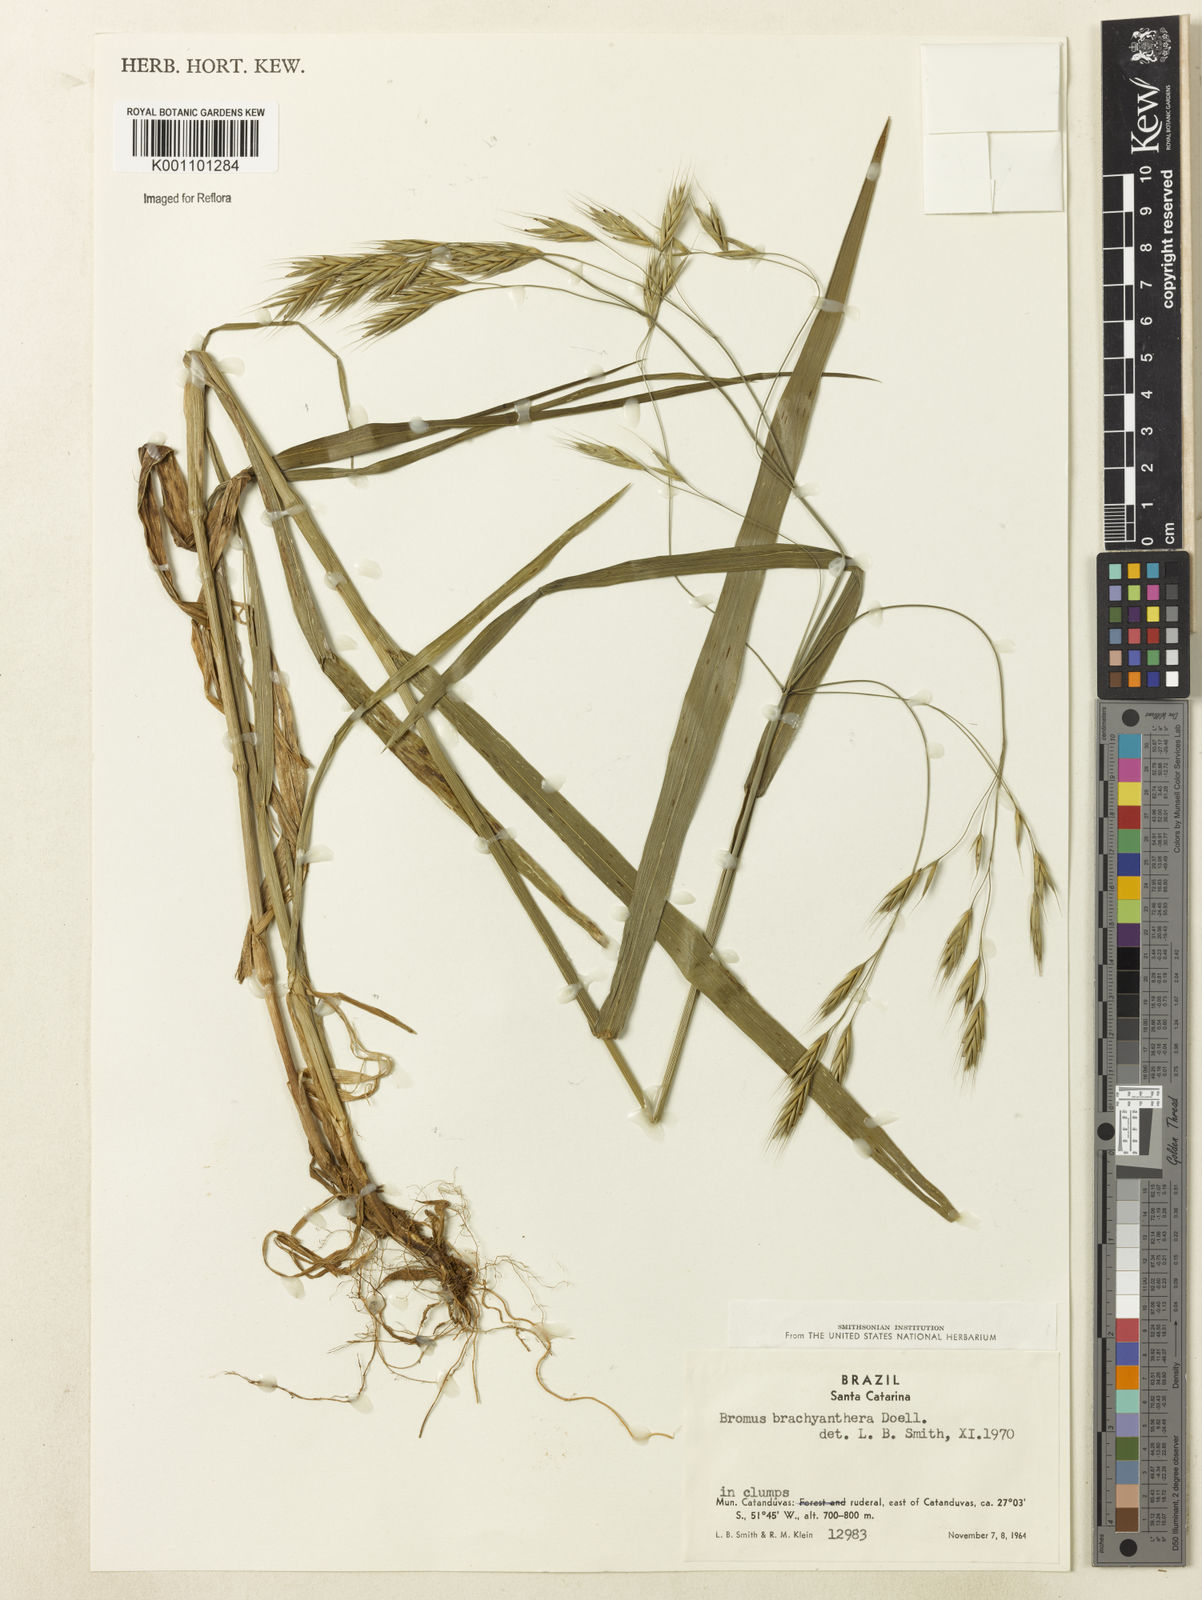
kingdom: Plantae
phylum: Tracheophyta
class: Liliopsida
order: Poales
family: Poaceae
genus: Bromus
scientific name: Bromus
